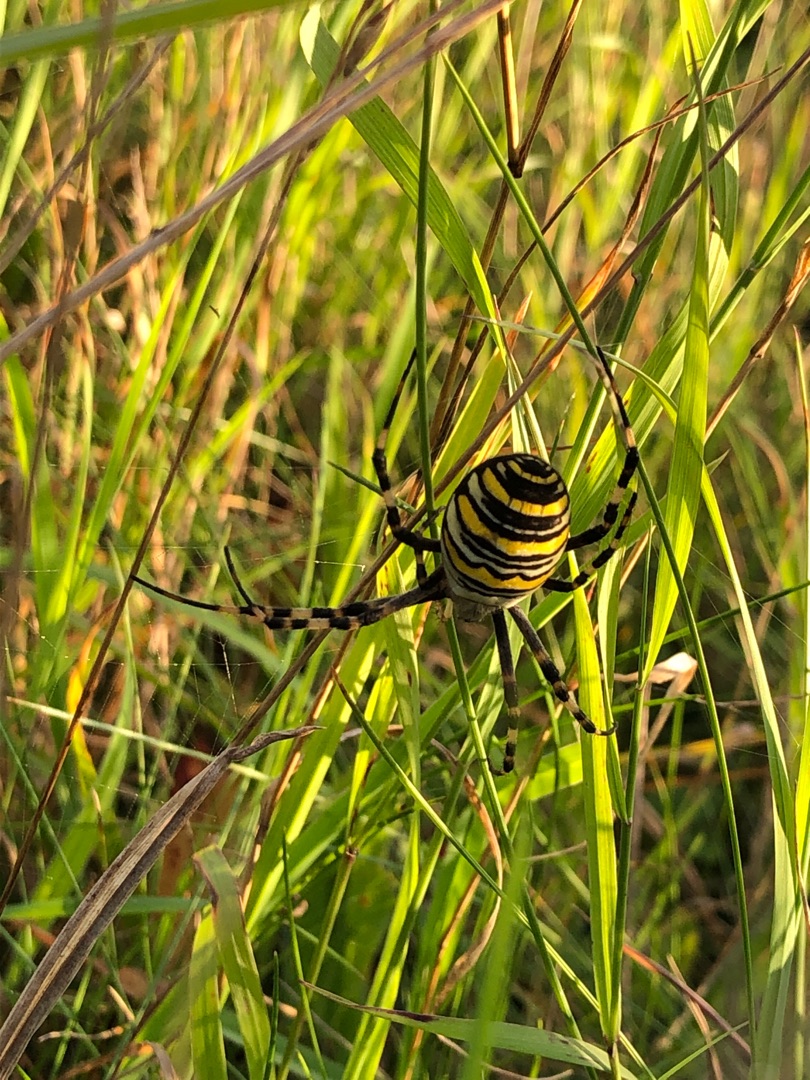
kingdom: Animalia
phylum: Arthropoda
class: Arachnida
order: Araneae
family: Araneidae
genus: Argiope
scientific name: Argiope bruennichi
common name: Hvepseedderkop
